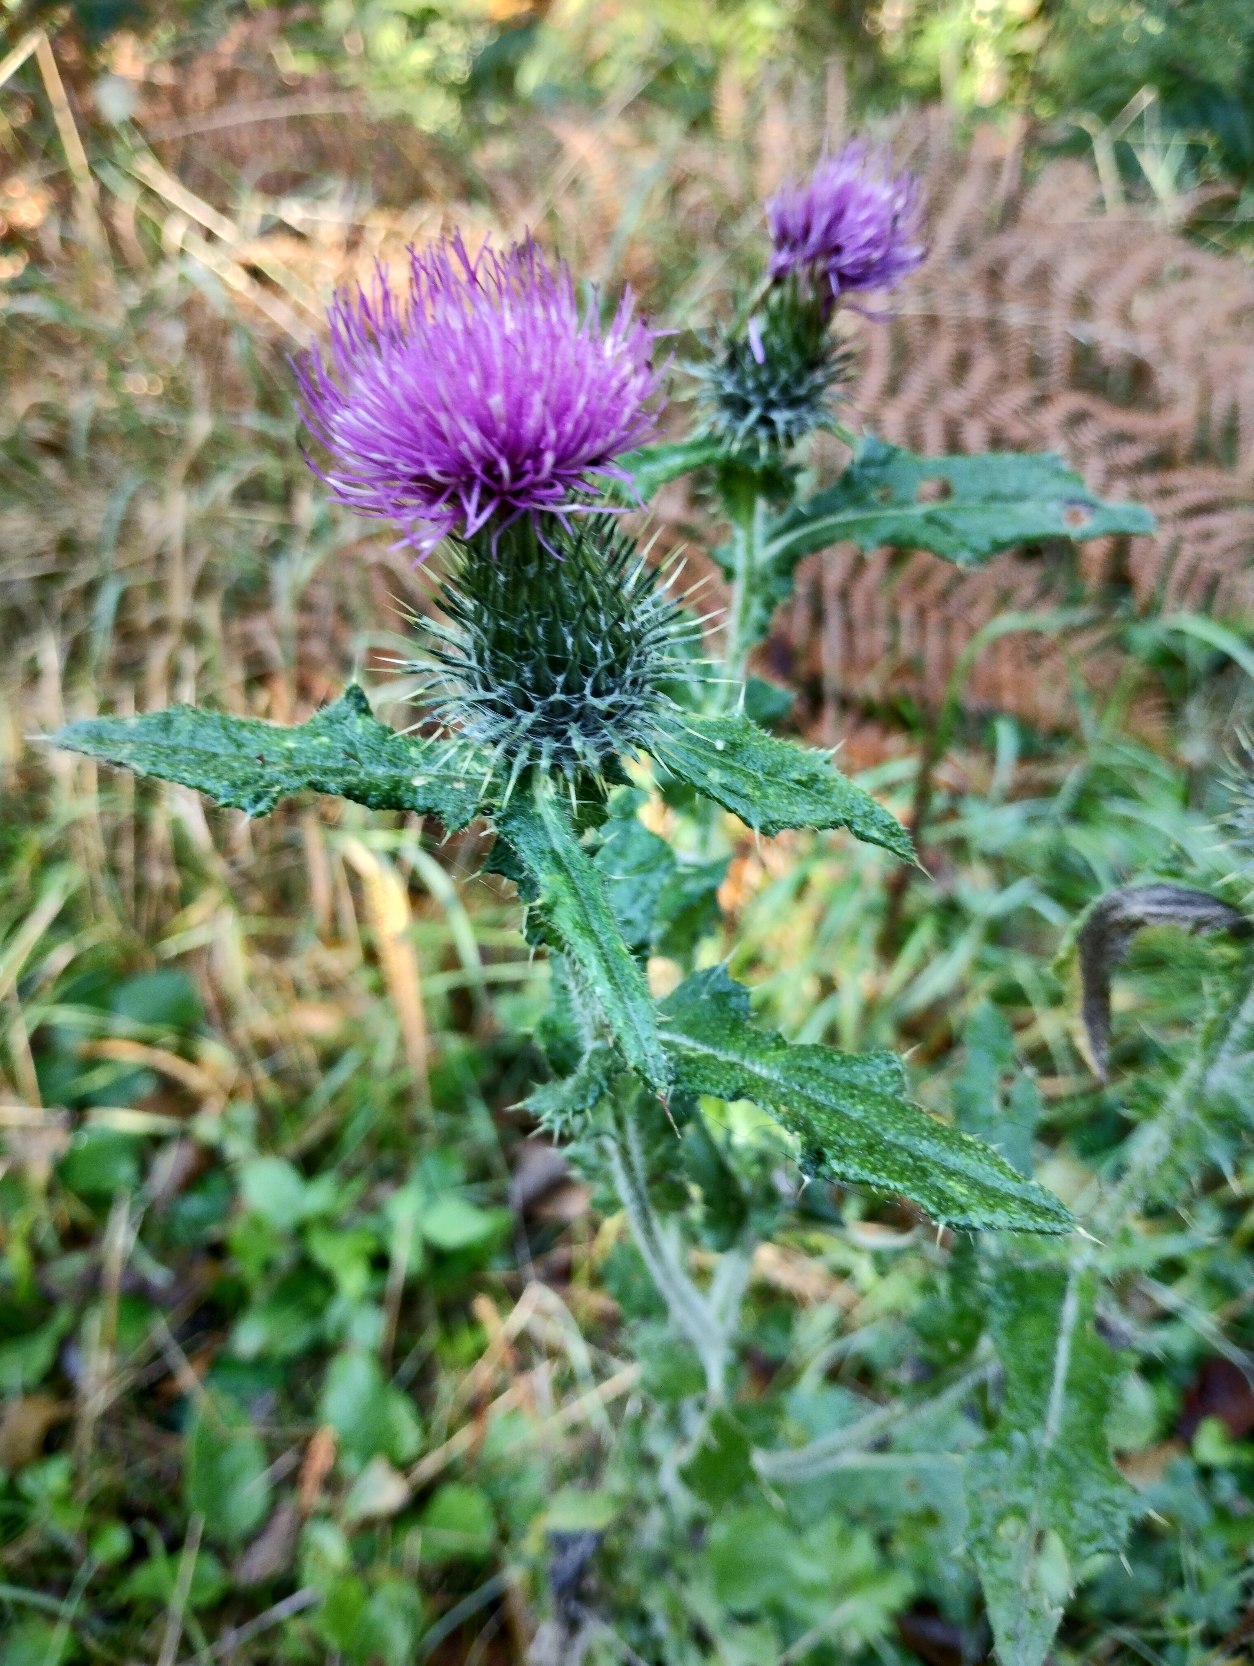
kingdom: Plantae
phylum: Tracheophyta
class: Magnoliopsida
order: Asterales
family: Asteraceae
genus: Cirsium
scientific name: Cirsium vulgare
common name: Horse-tidsel
